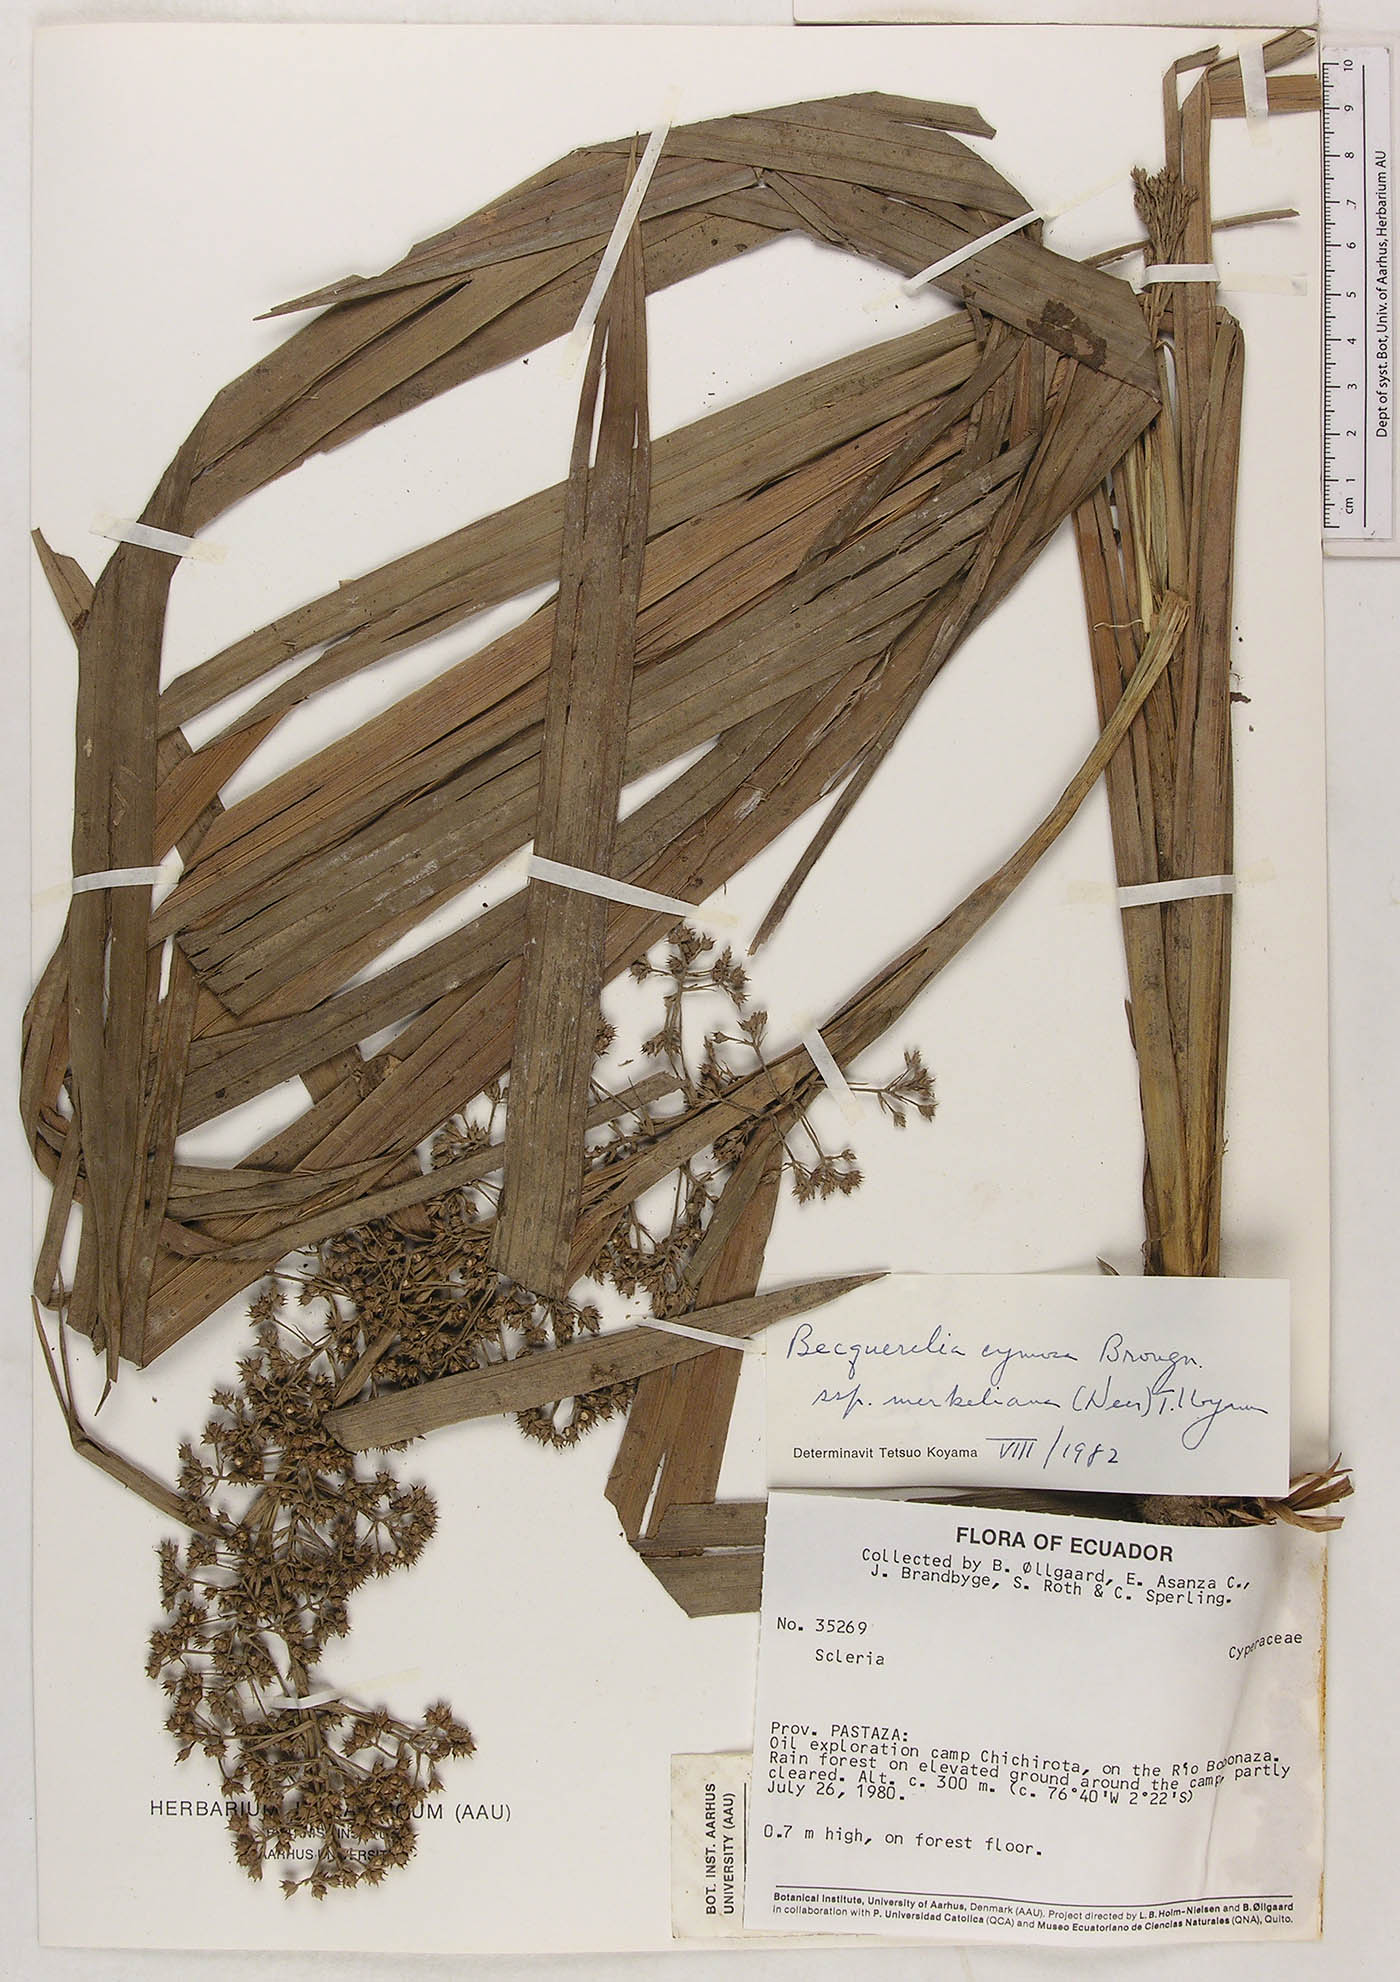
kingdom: Plantae
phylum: Tracheophyta
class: Liliopsida
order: Poales
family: Cyperaceae
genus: Becquerelia
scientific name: Becquerelia cymosa
